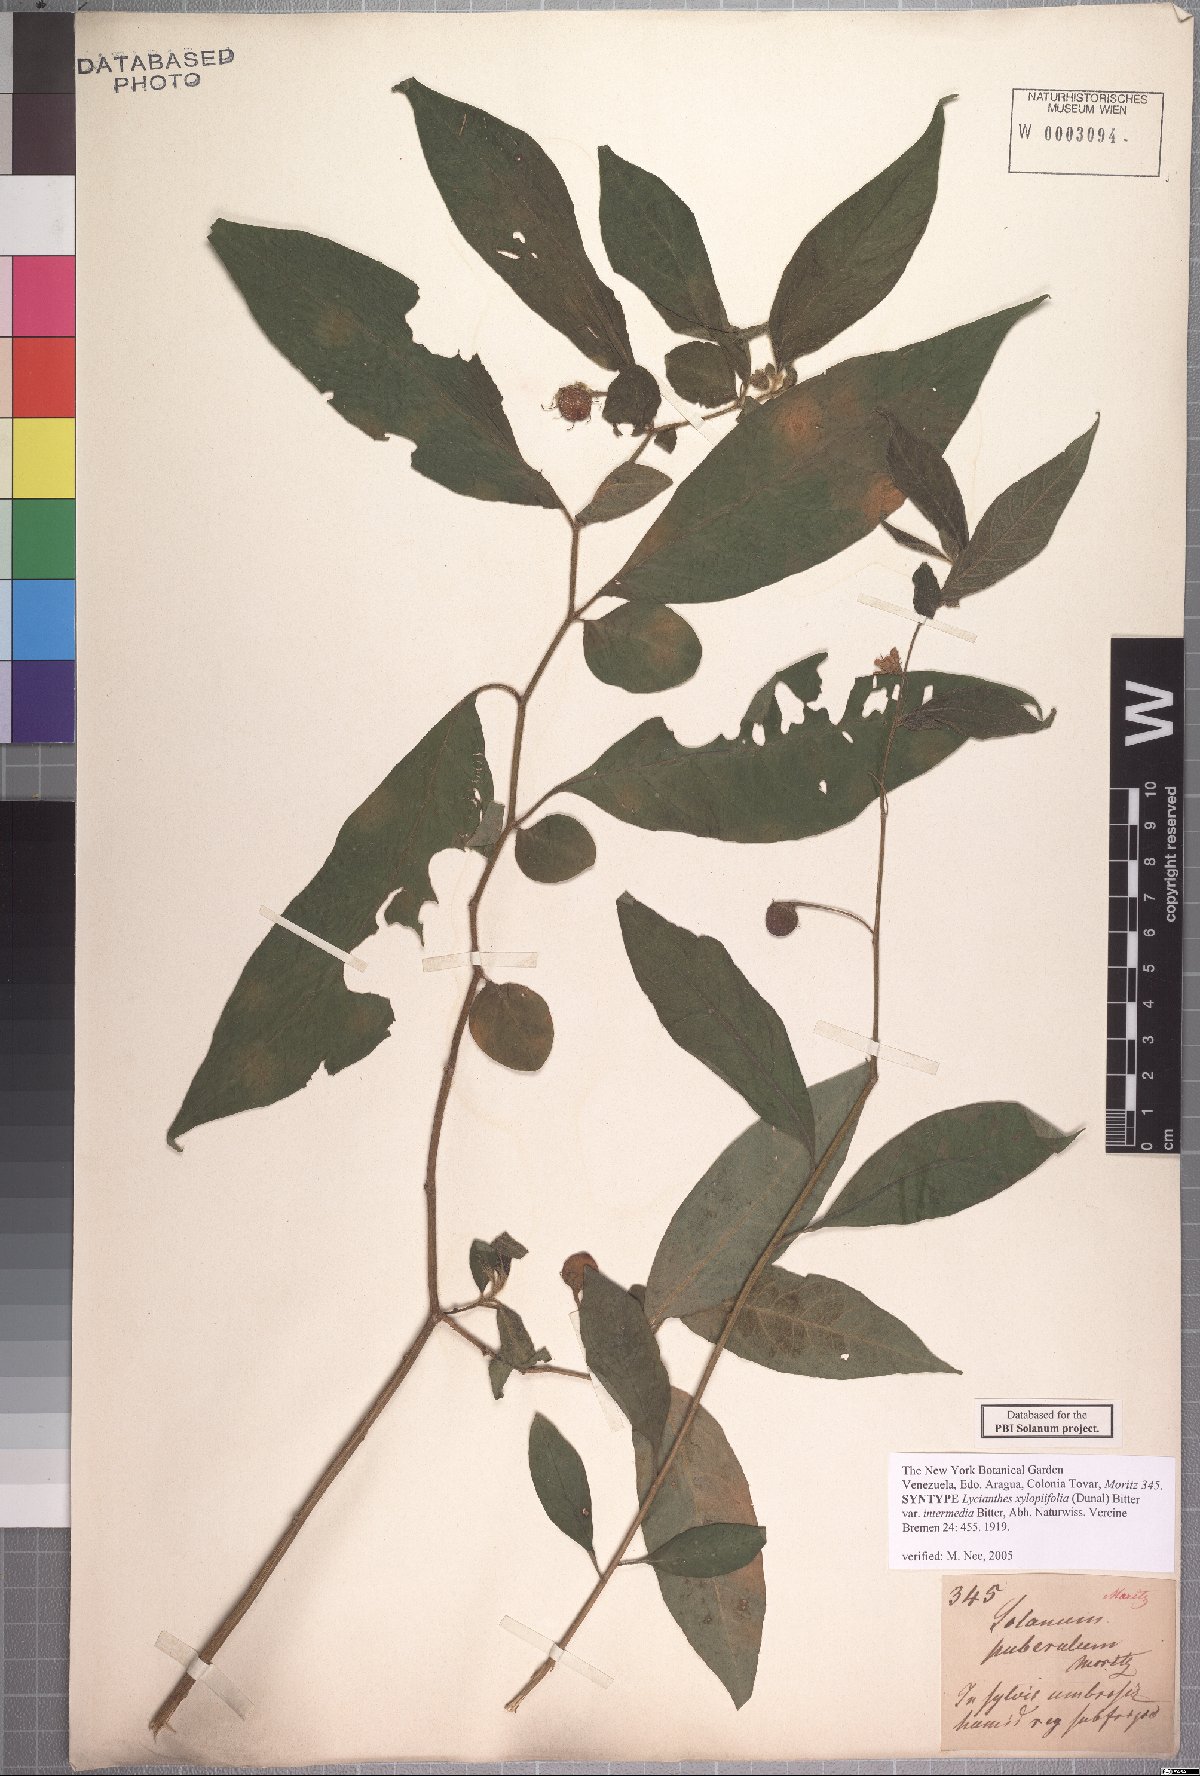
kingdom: Plantae
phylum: Tracheophyta
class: Magnoliopsida
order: Solanales
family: Solanaceae
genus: Lycianthes
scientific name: Lycianthes acutifolia
